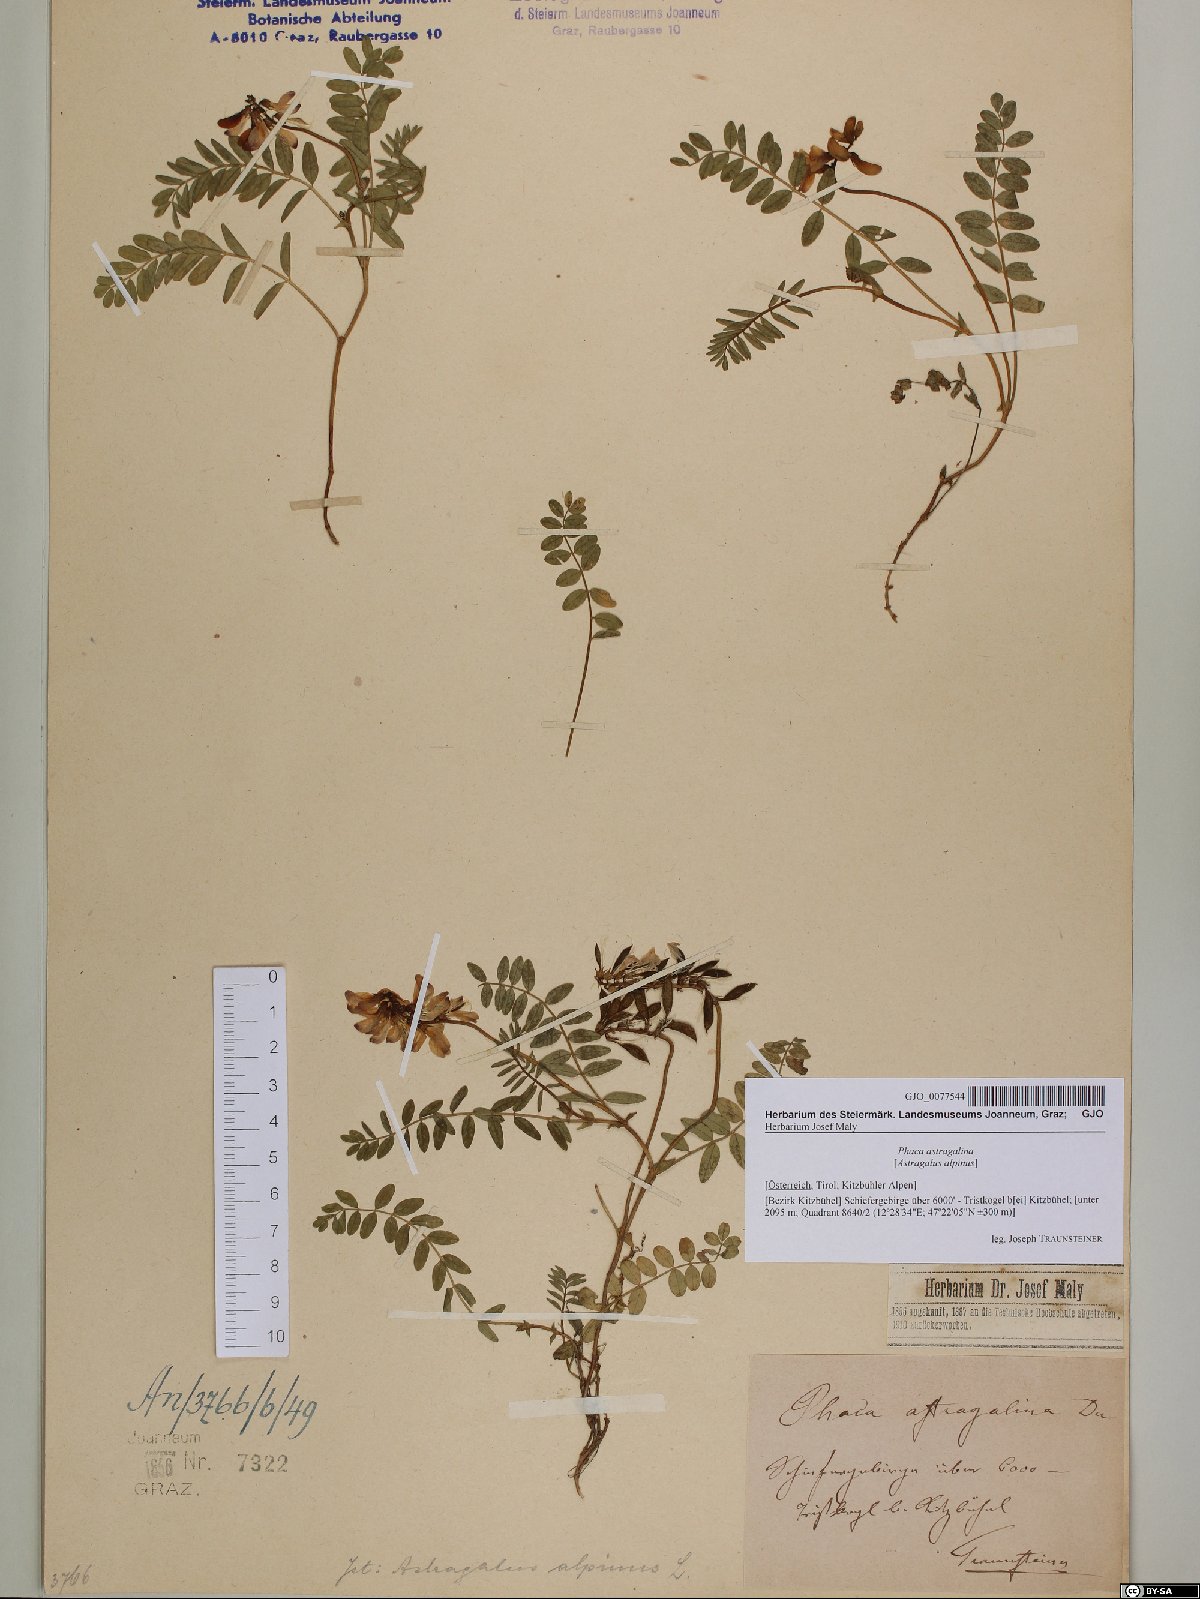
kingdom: Plantae
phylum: Tracheophyta
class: Magnoliopsida
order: Fabales
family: Fabaceae
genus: Astragalus
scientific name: Astragalus alpinus
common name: Alpine milk-vetch
